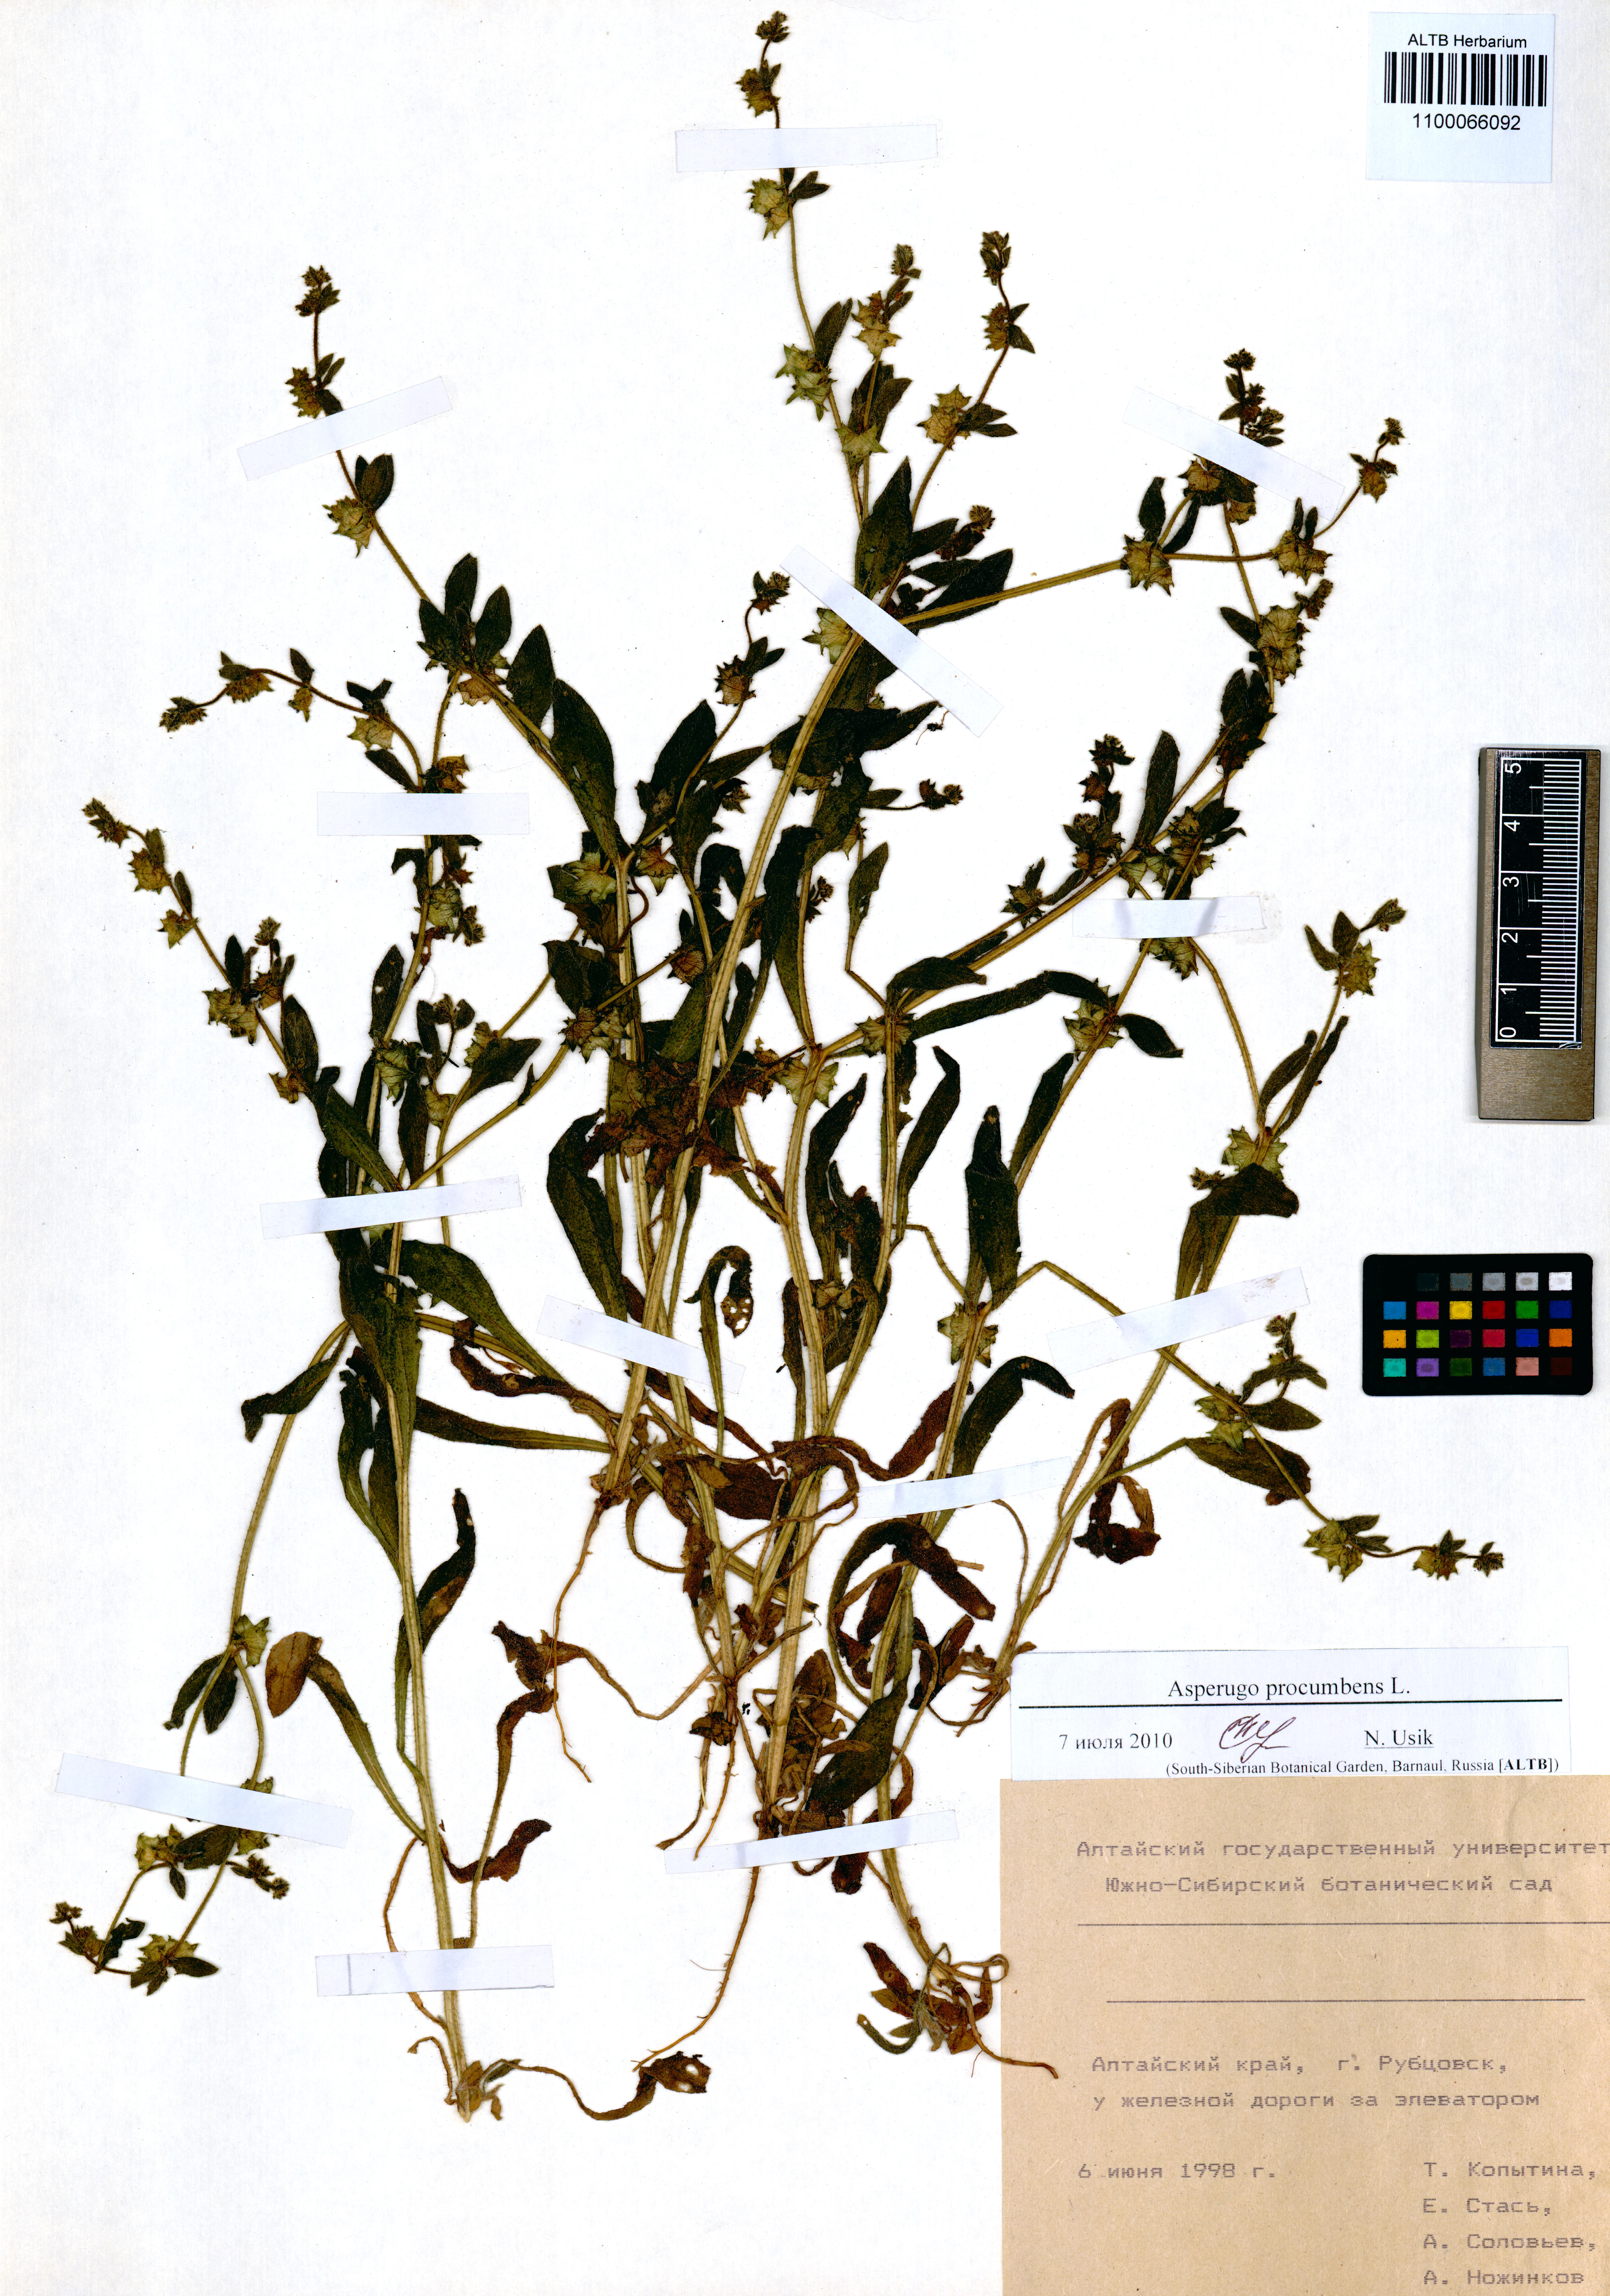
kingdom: Plantae
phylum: Tracheophyta
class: Magnoliopsida
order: Boraginales
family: Boraginaceae
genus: Asperugo
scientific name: Asperugo procumbens
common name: Madwort
